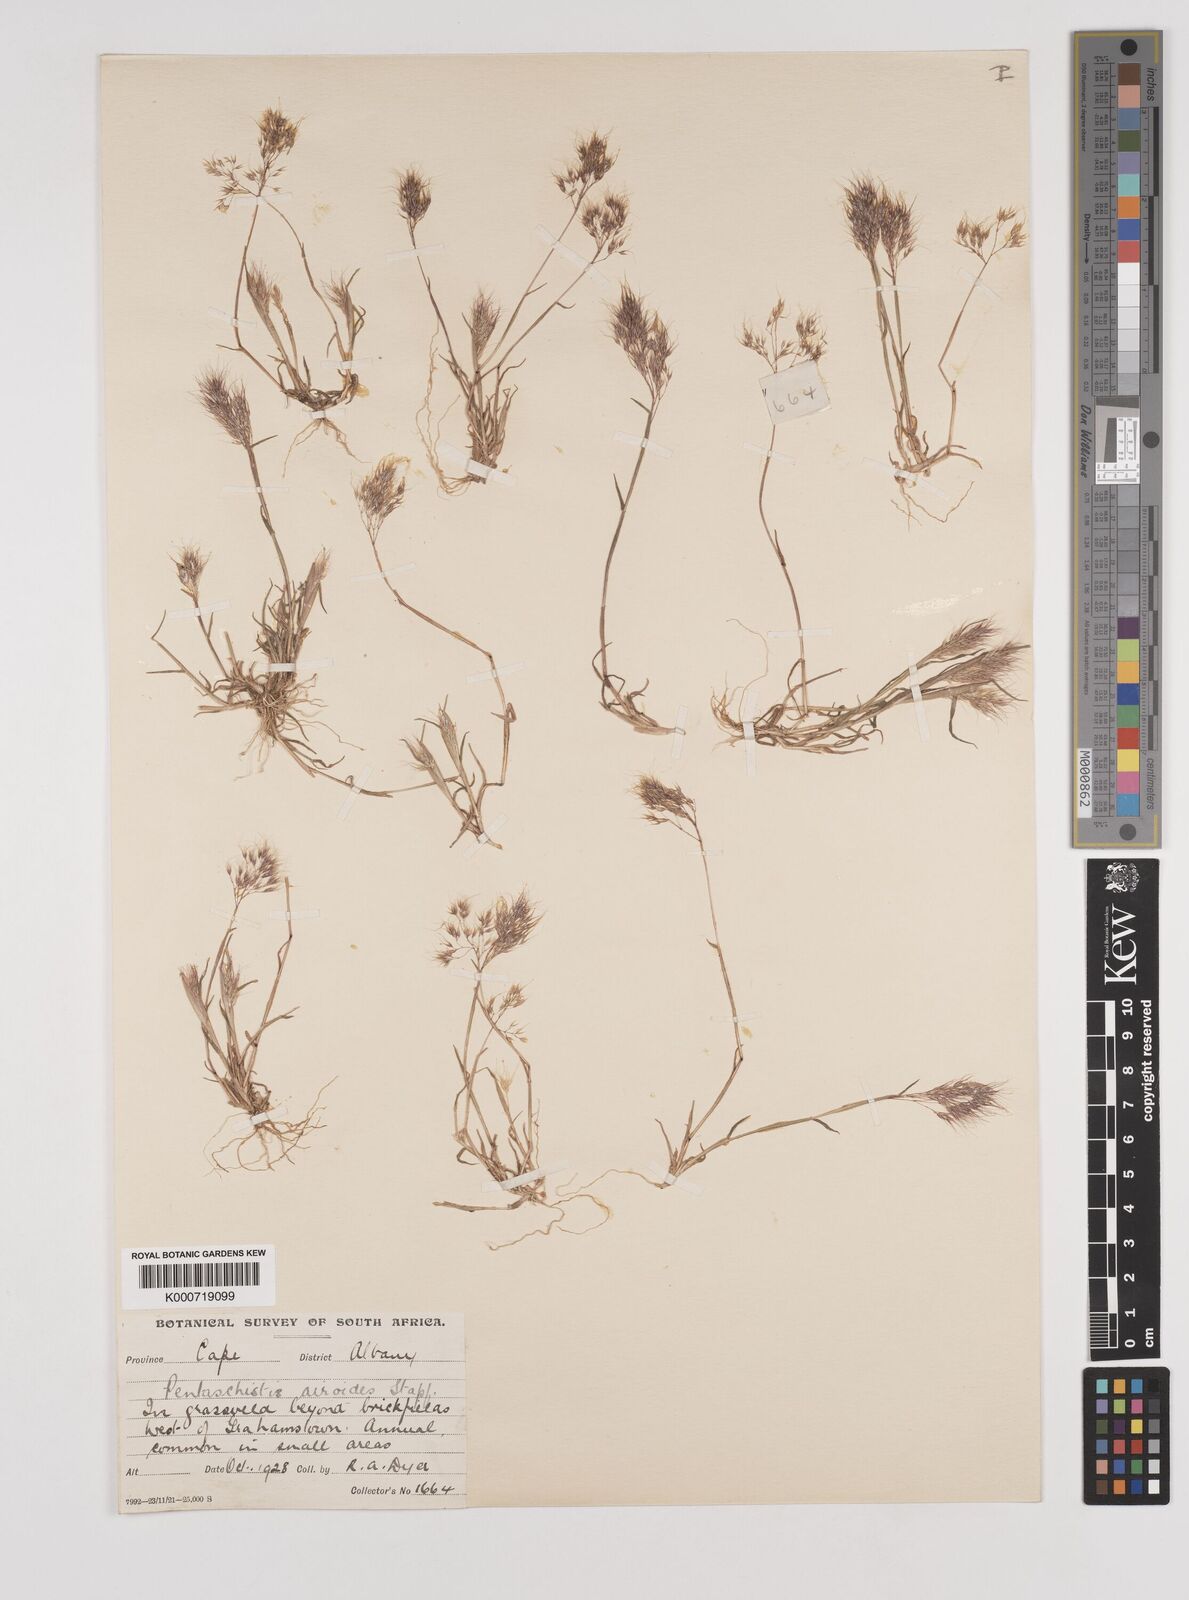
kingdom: Plantae
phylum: Tracheophyta
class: Liliopsida
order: Poales
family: Poaceae
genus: Pentameris
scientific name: Pentameris airoides
